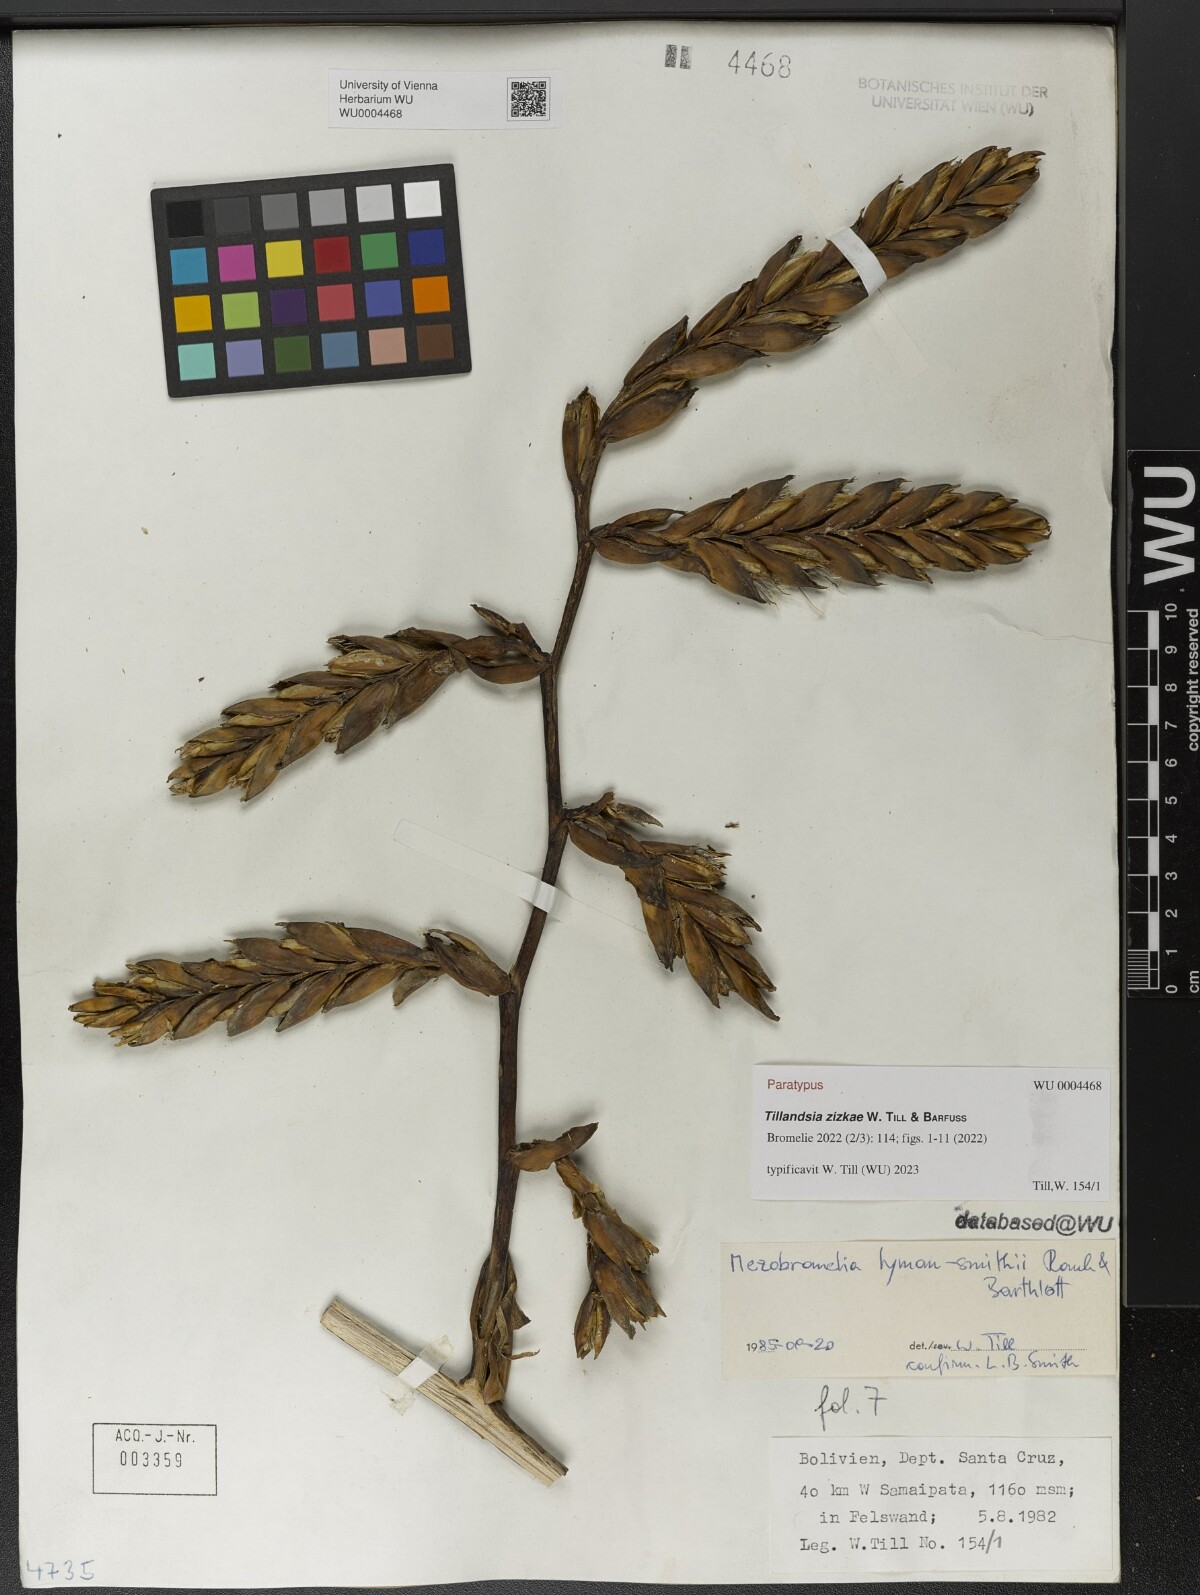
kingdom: Plantae
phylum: Tracheophyta
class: Liliopsida
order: Poales
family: Bromeliaceae
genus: Tillandsia
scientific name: Tillandsia
